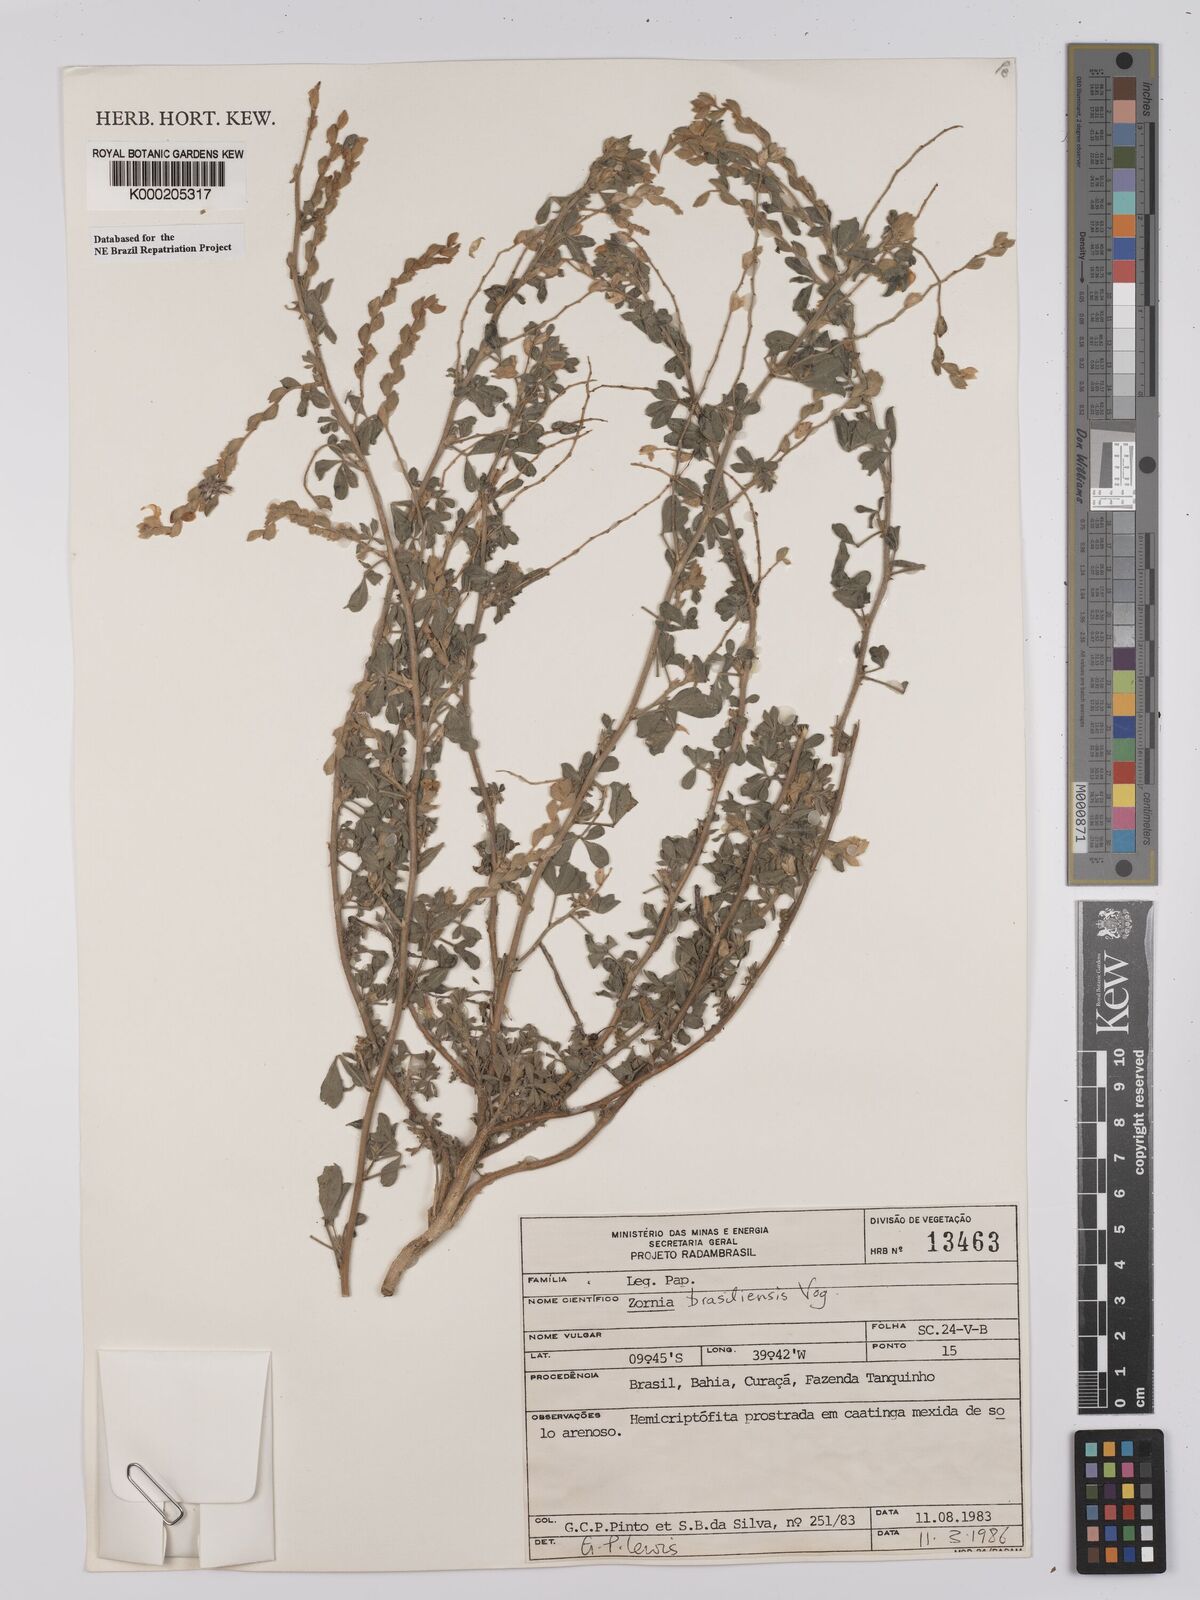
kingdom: Plantae
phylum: Tracheophyta
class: Magnoliopsida
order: Fabales
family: Fabaceae
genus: Zornia
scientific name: Zornia brasiliensis
